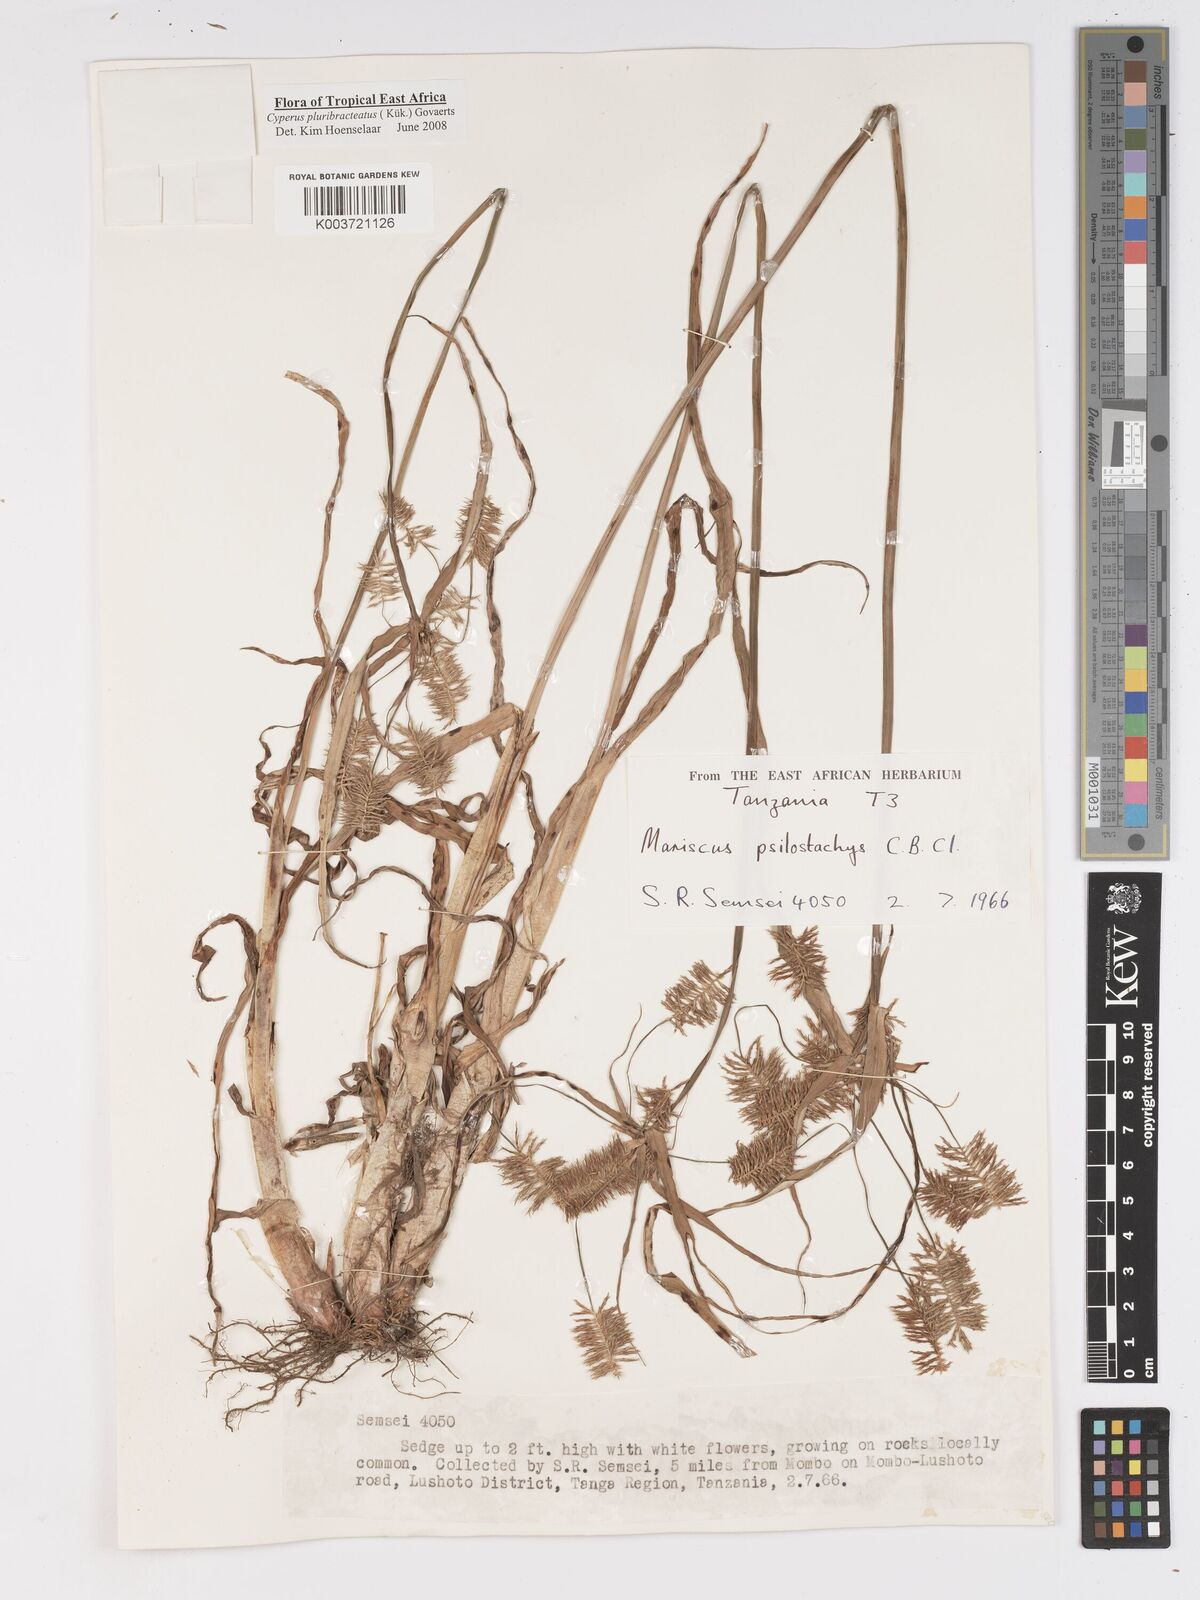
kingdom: Plantae
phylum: Tracheophyta
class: Liliopsida
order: Poales
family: Cyperaceae
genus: Cyperus
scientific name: Cyperus trigonellus
